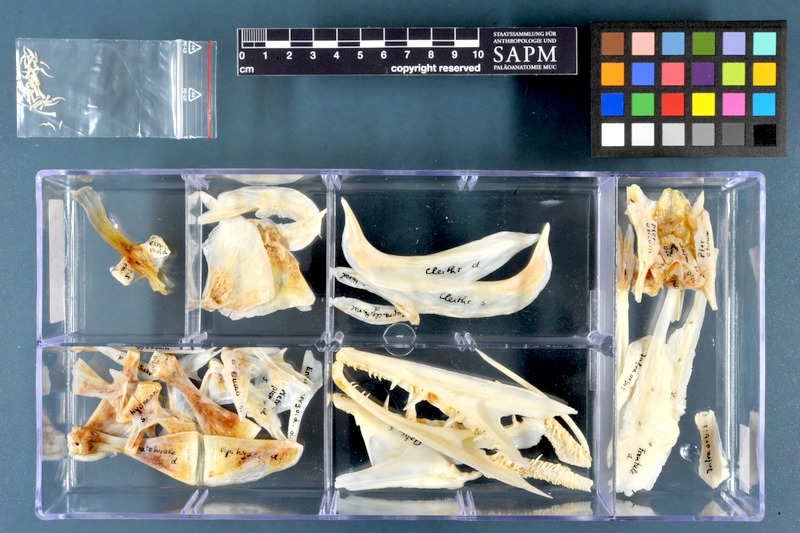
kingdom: Animalia
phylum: Chordata
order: Esociformes
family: Esocidae
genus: Esox
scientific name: Esox lucius
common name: Northern pike
